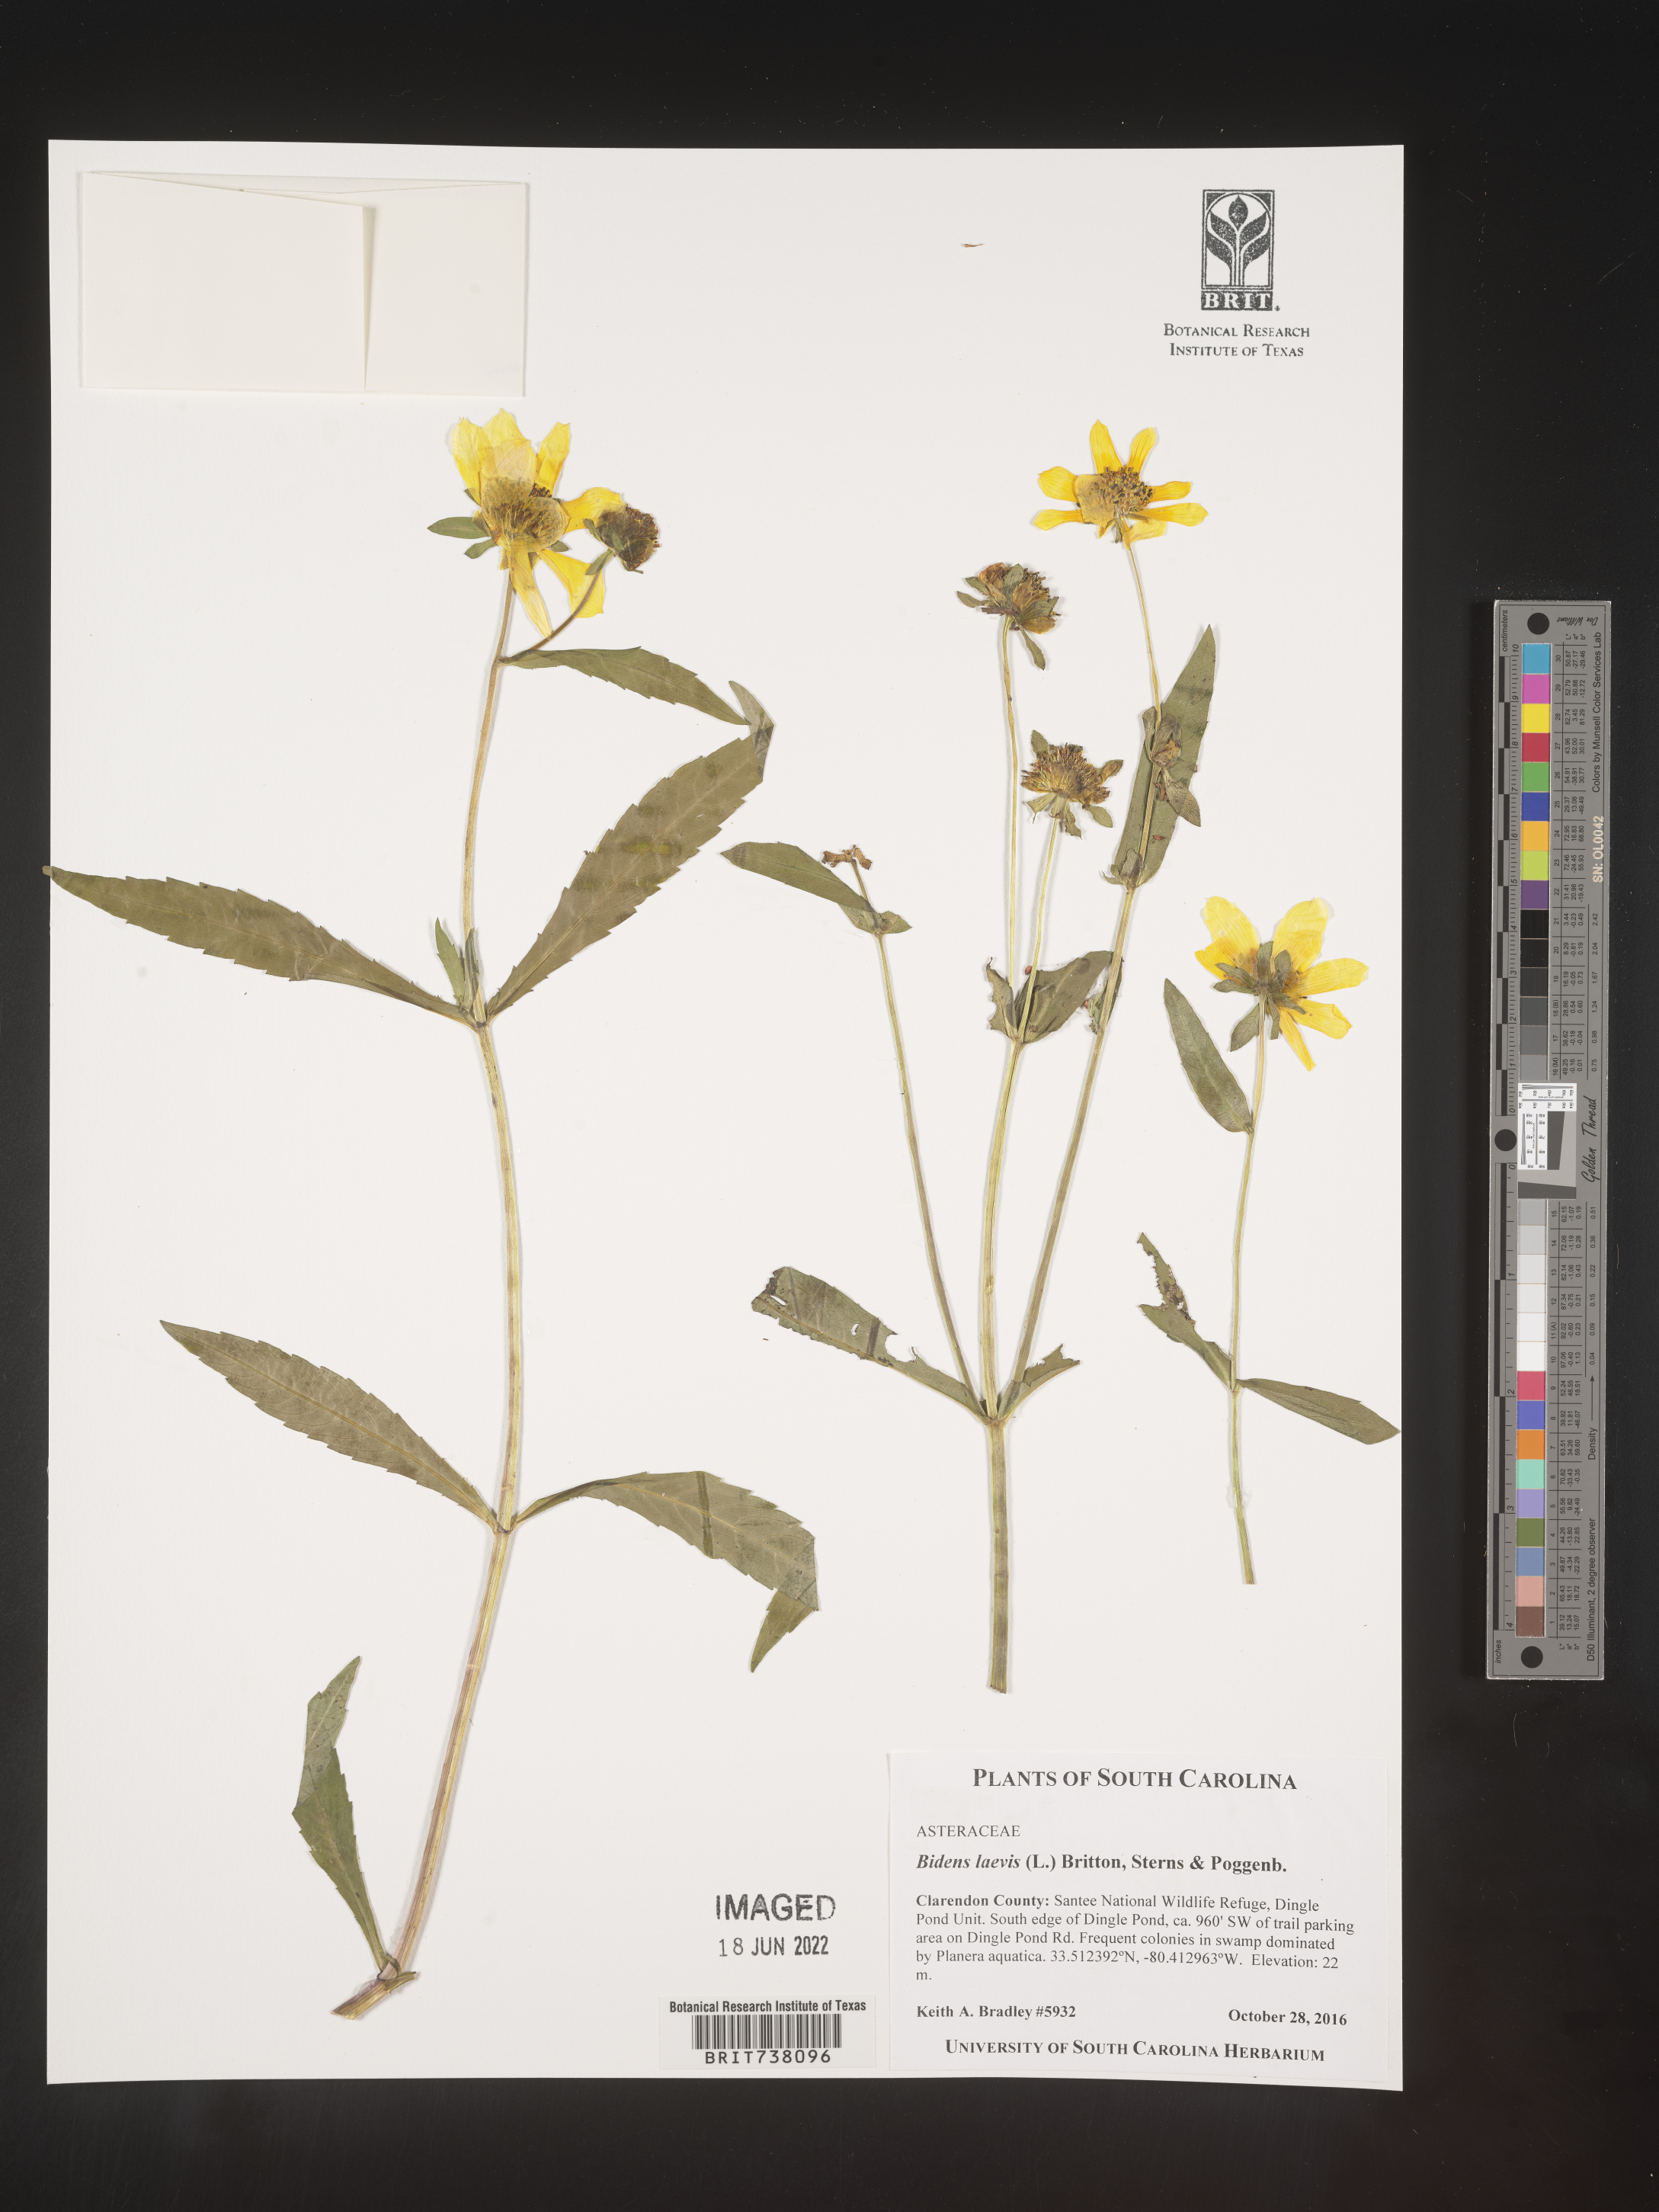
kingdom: Plantae
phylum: Tracheophyta
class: Magnoliopsida
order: Asterales
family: Asteraceae
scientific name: Asteraceae
